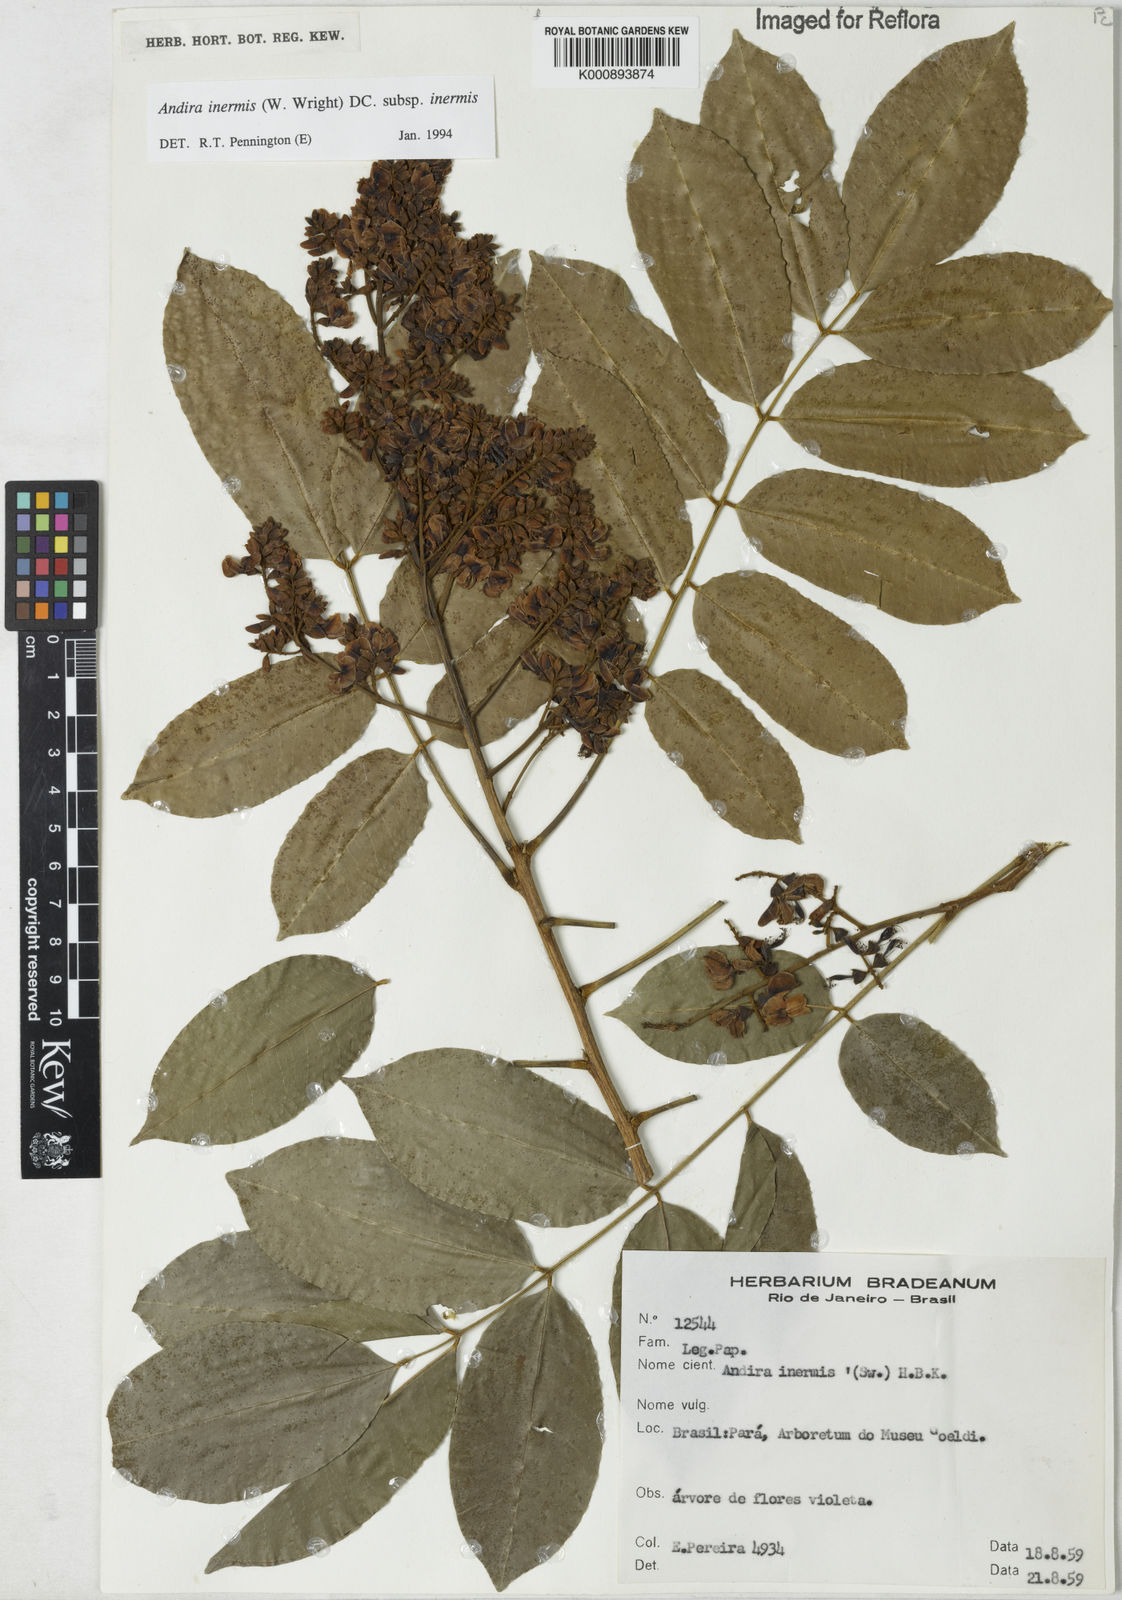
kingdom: Plantae
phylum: Tracheophyta
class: Magnoliopsida
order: Fabales
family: Fabaceae
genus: Andira
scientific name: Andira inermis
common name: Angelin
